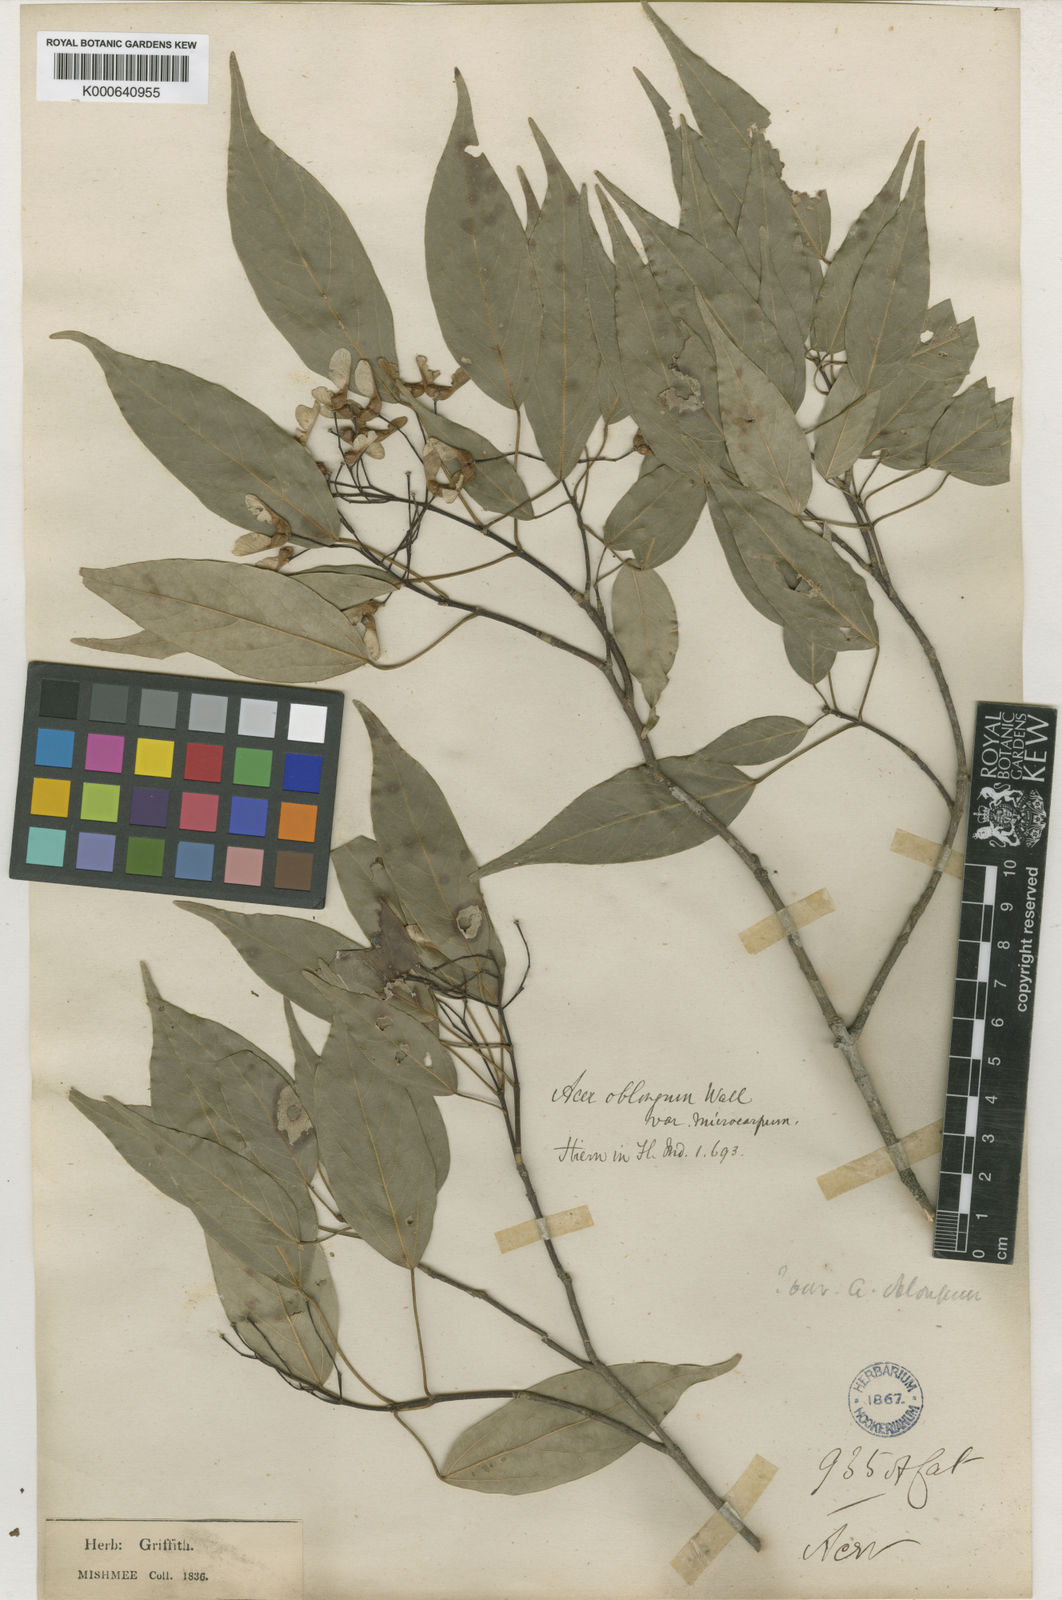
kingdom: Plantae
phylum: Tracheophyta
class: Magnoliopsida
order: Sapindales
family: Sapindaceae
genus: Acer
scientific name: Acer oblongum
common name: Himalayan maple
